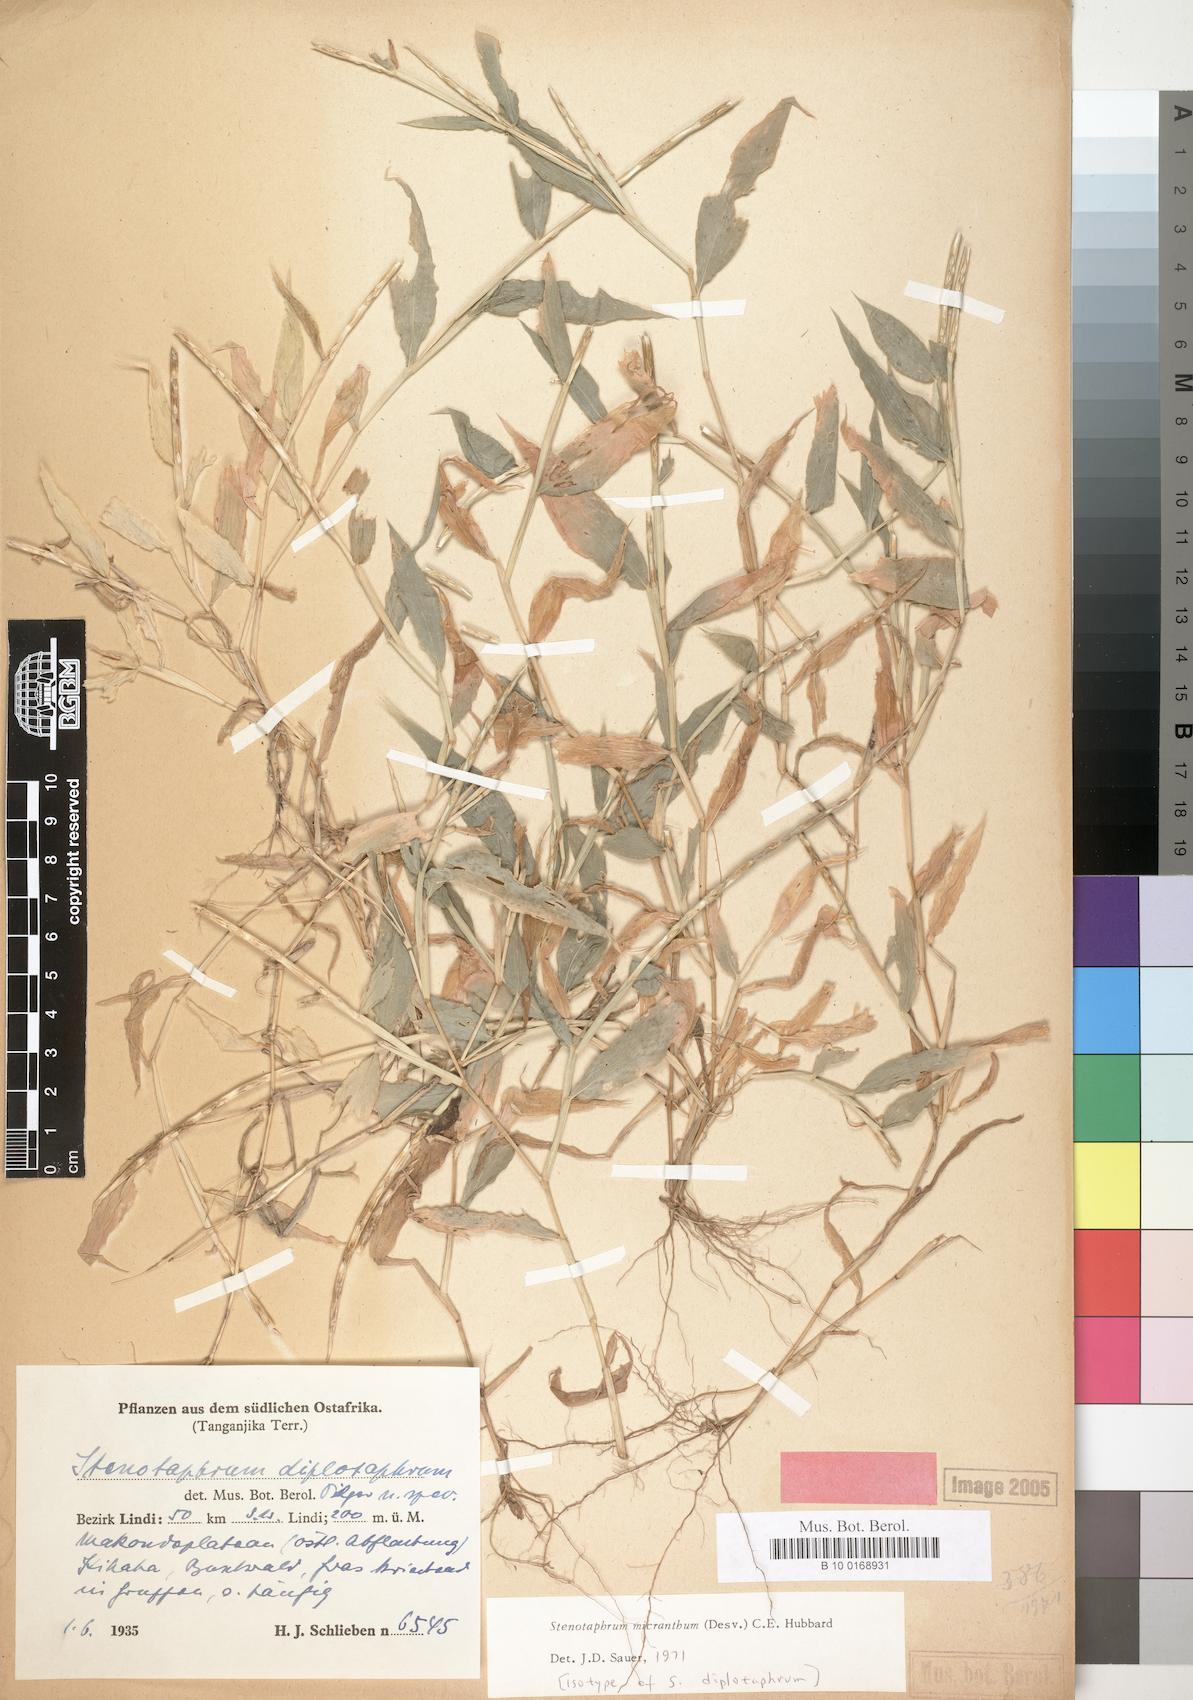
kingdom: Plantae
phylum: Tracheophyta
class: Liliopsida
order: Poales
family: Poaceae
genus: Stenotaphrum
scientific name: Stenotaphrum micranthum
